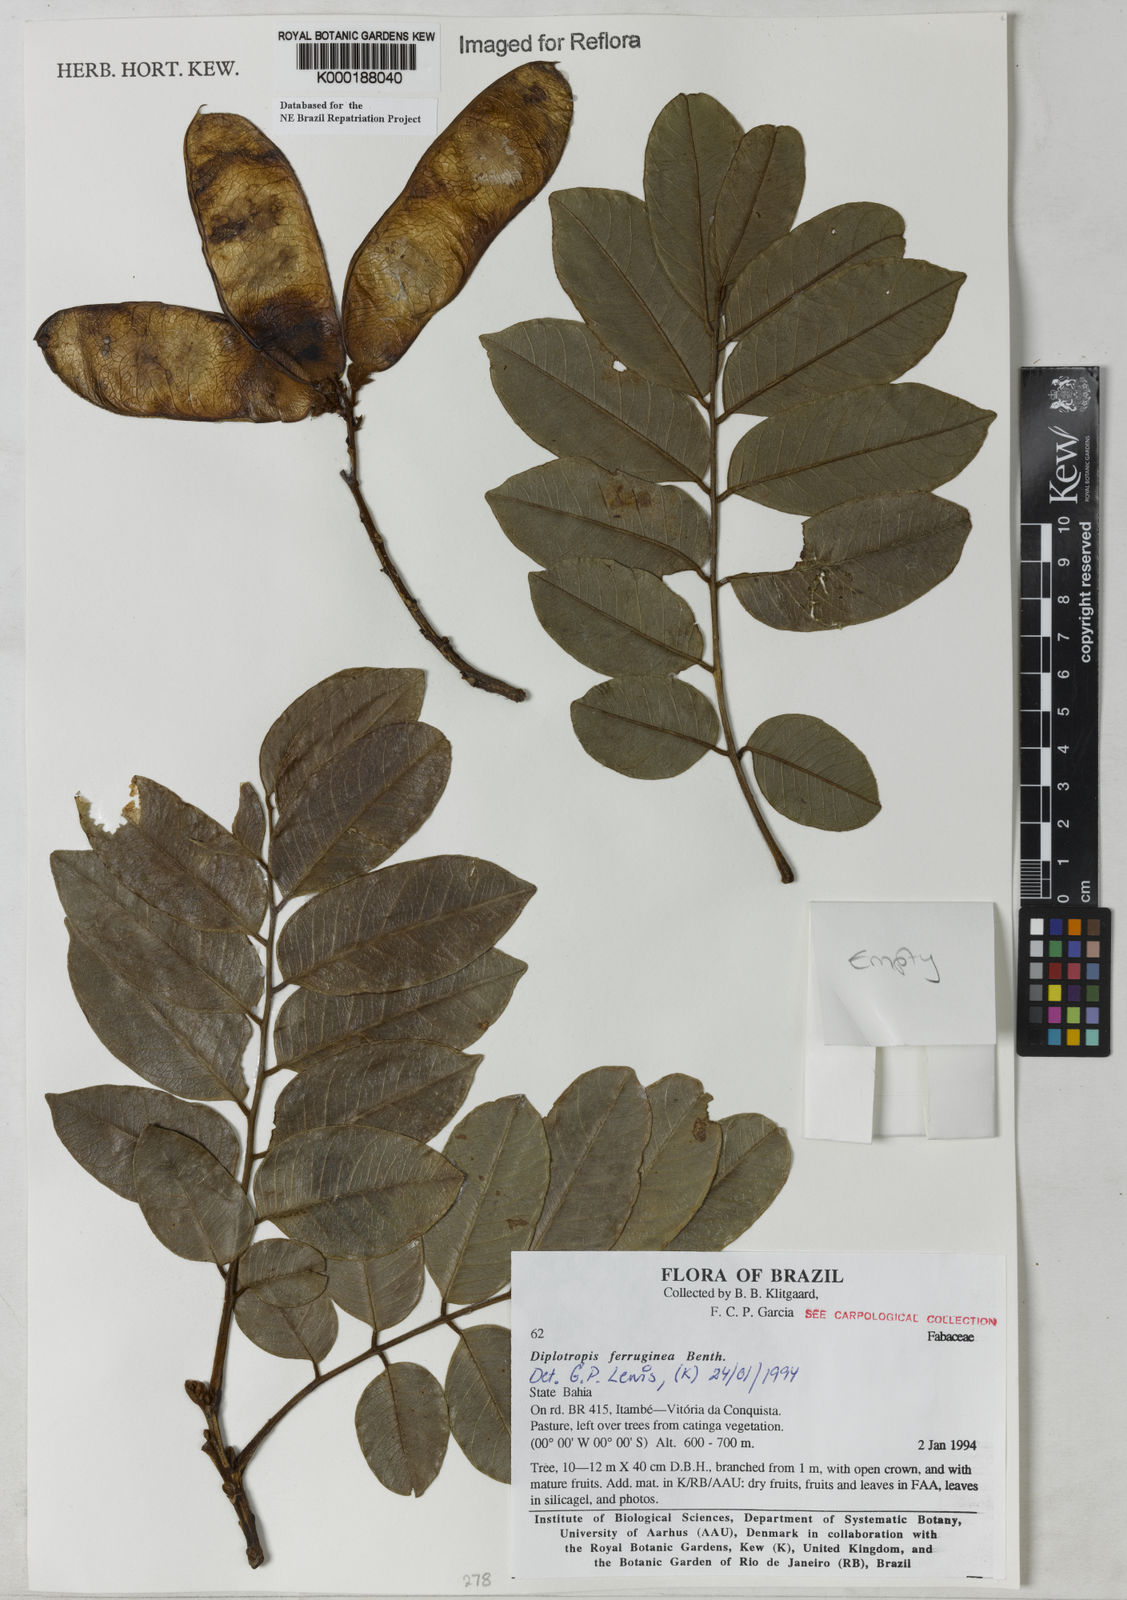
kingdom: Plantae
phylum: Tracheophyta
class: Magnoliopsida
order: Fabales
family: Fabaceae
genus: Diplotropis
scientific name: Diplotropis ferruginea
